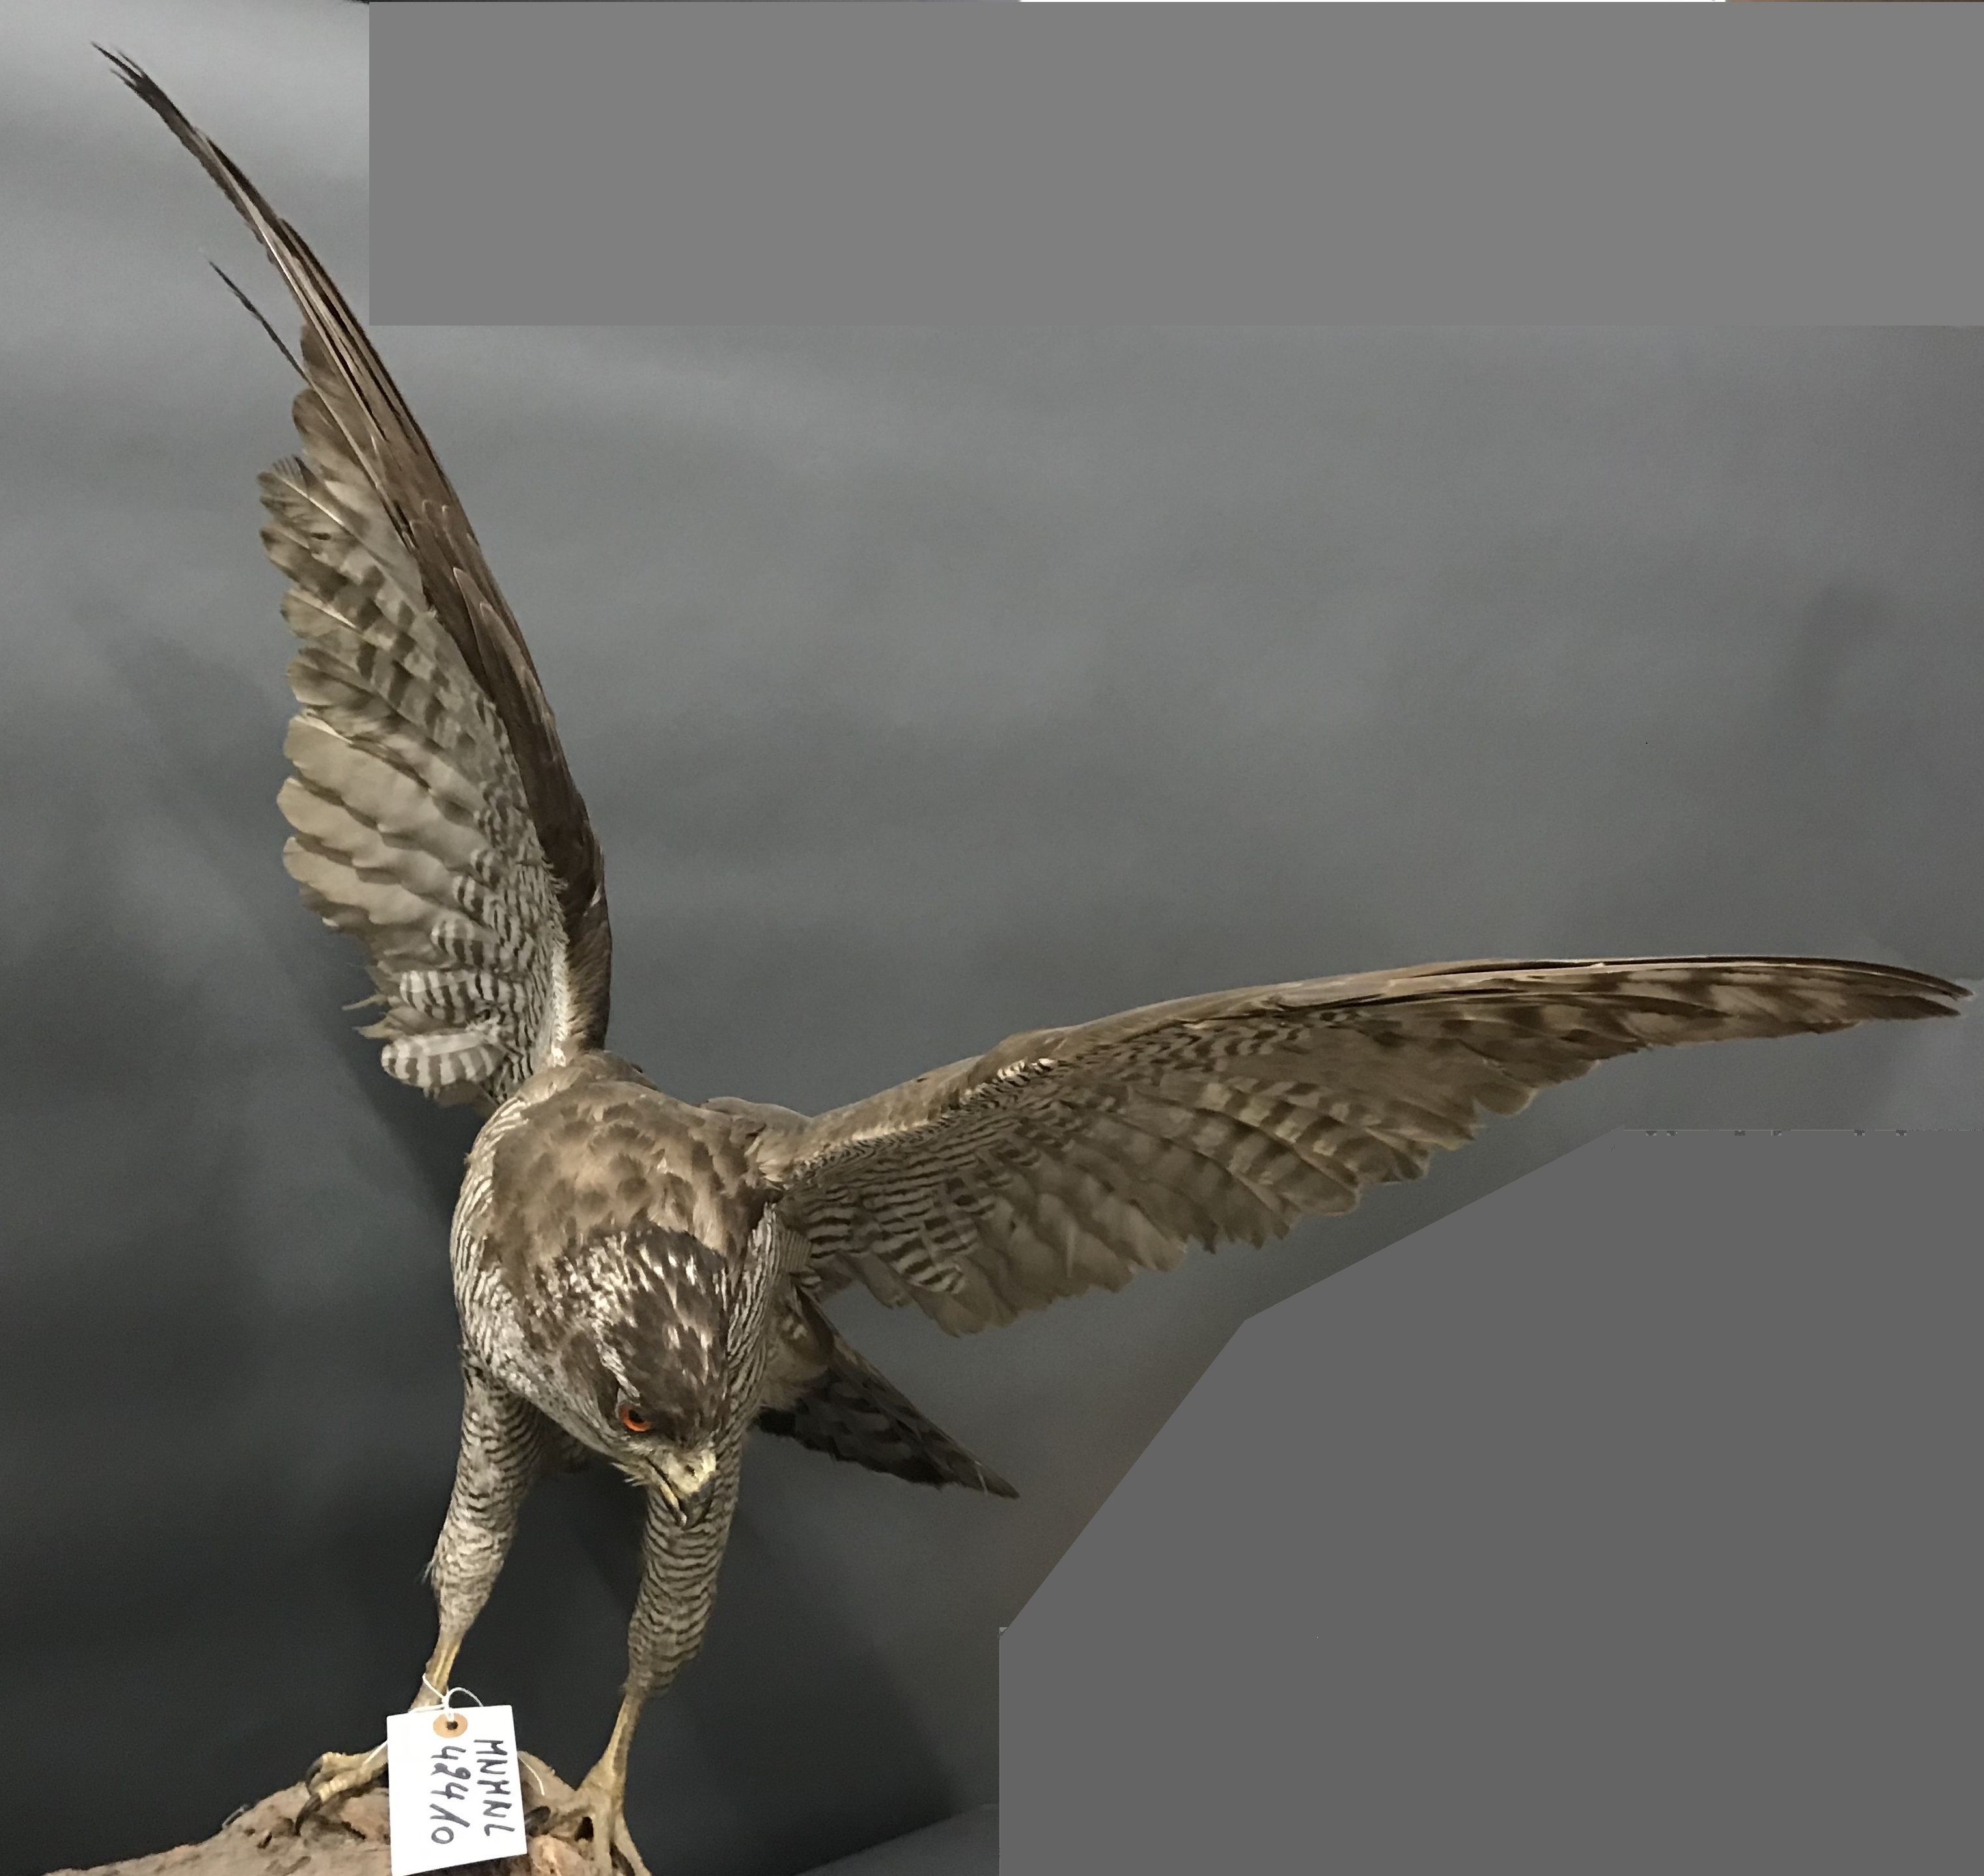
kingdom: Animalia
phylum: Chordata
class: Aves
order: Accipitriformes
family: Accipitridae
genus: Accipiter
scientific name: Accipiter gentilis
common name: Northern goshawk
